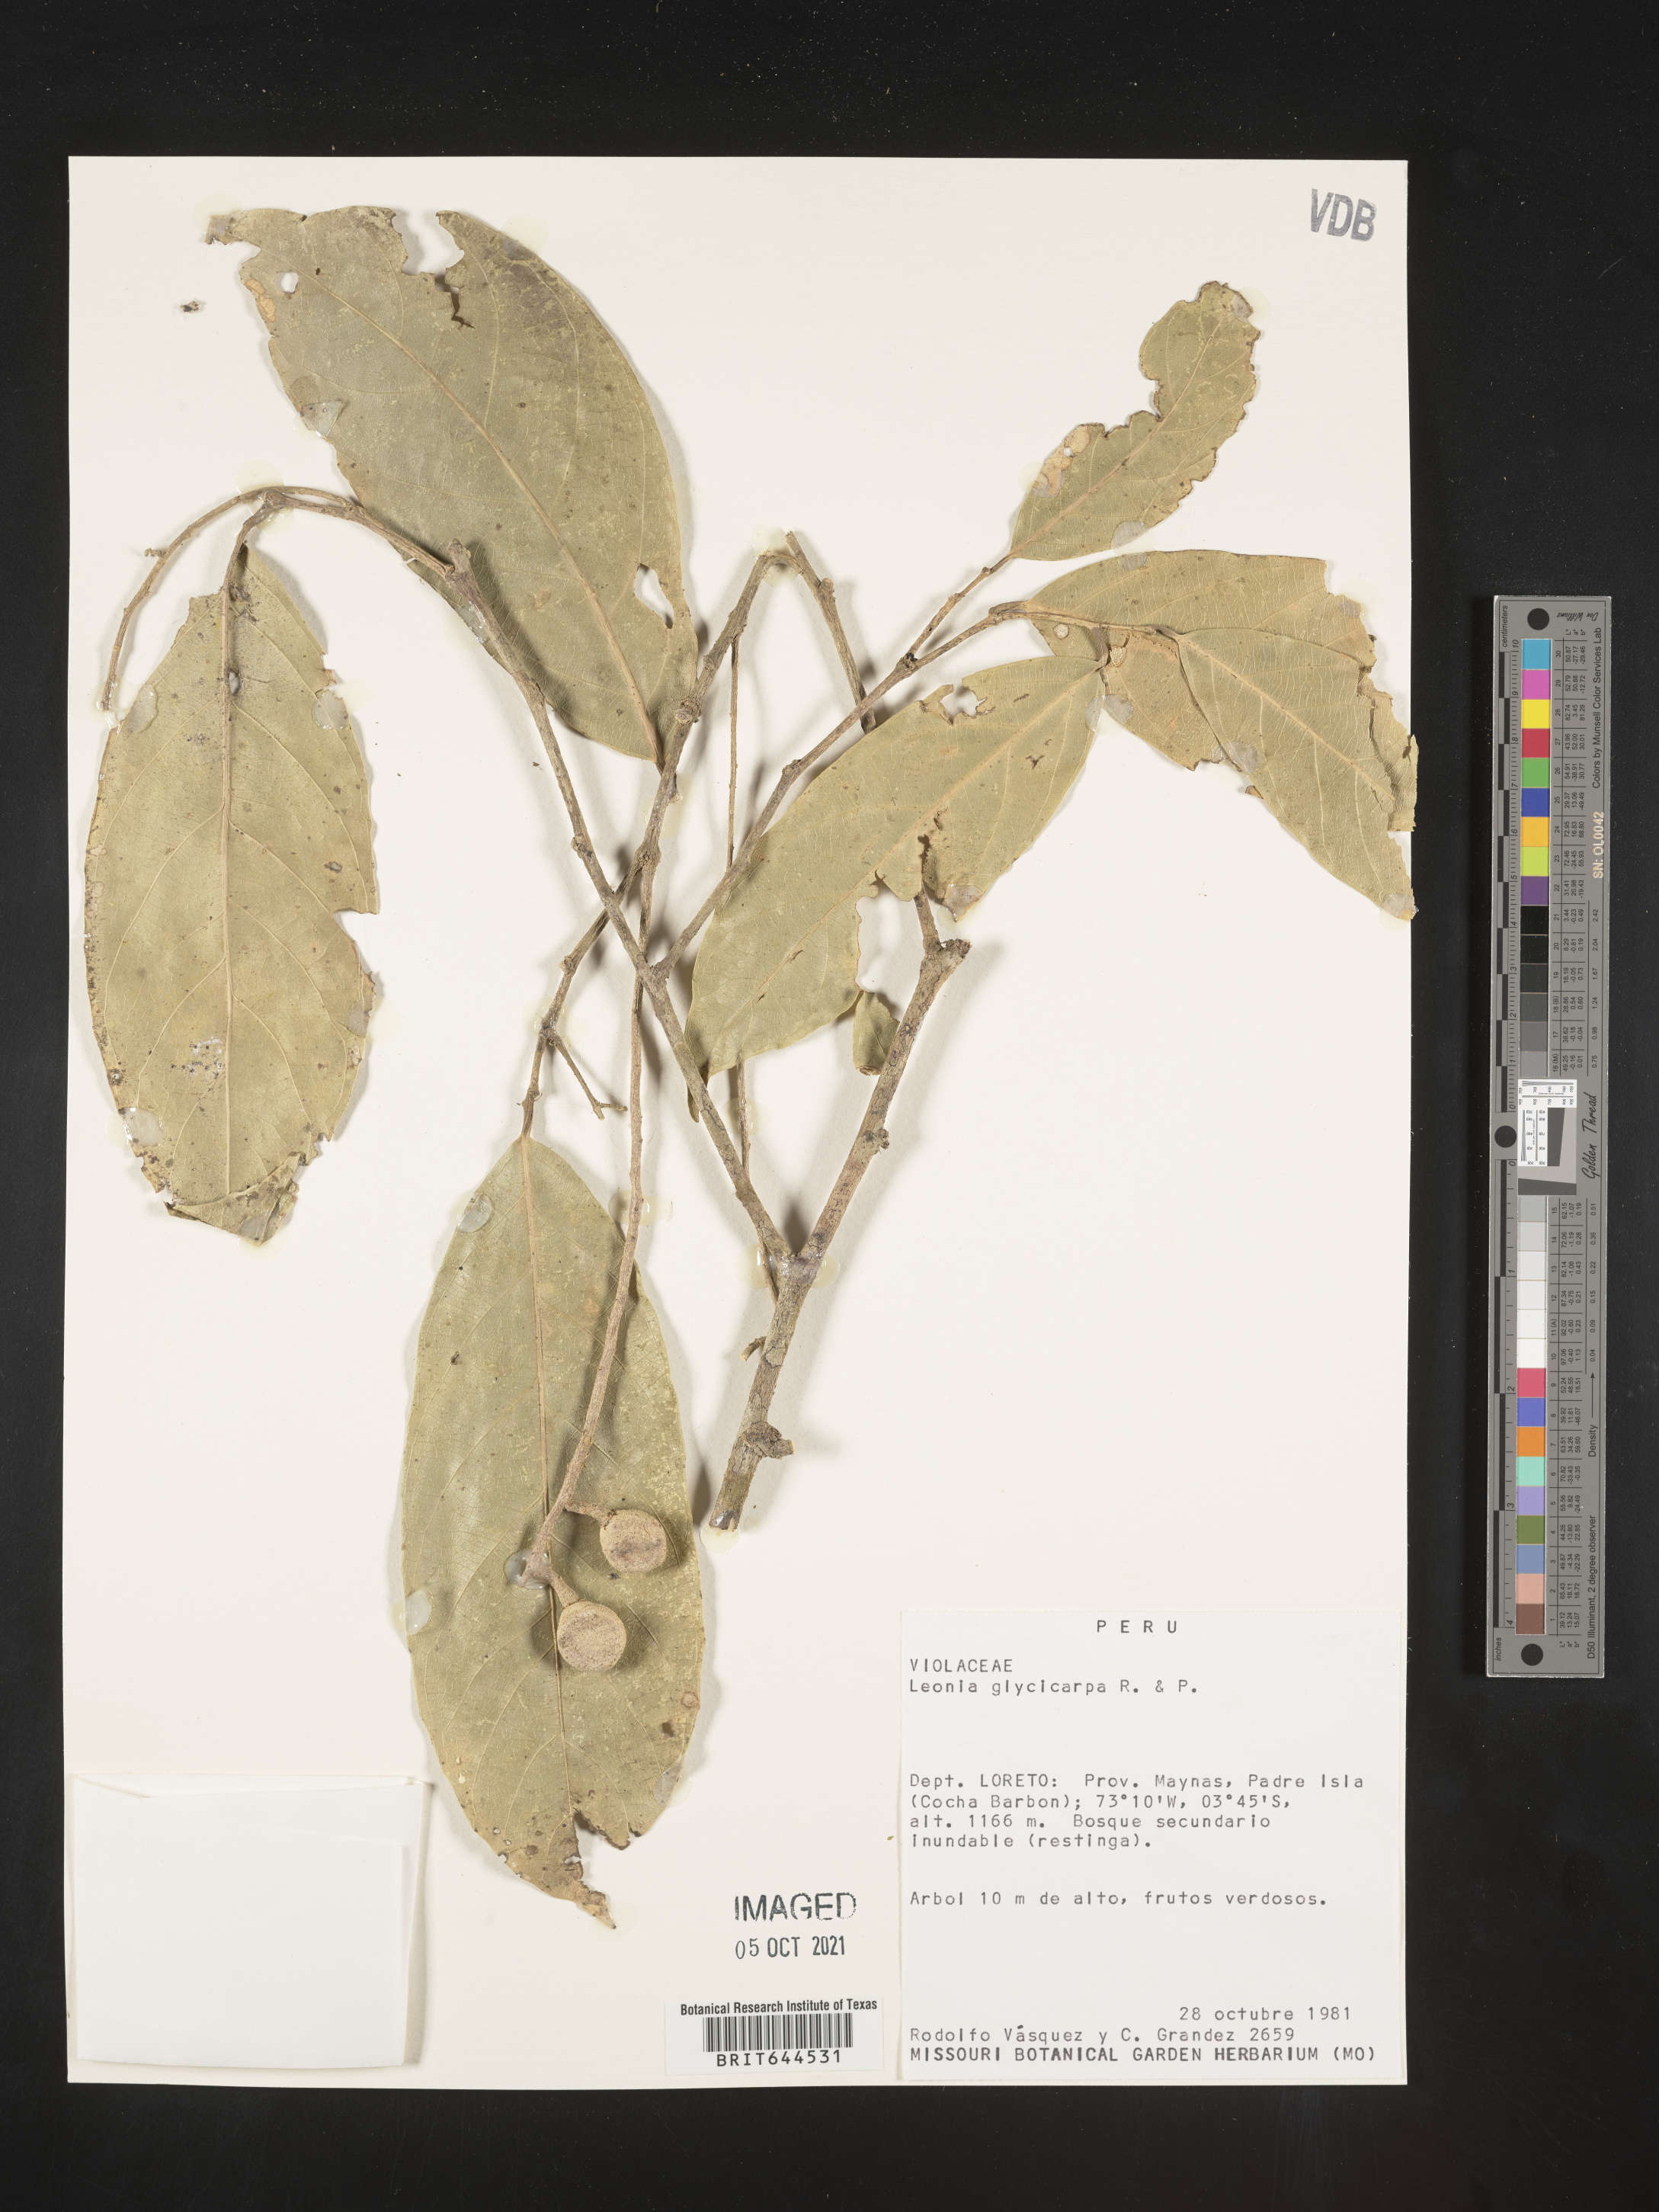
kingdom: Plantae
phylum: Tracheophyta
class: Magnoliopsida
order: Malpighiales
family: Violaceae
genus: Leonia
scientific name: Leonia
